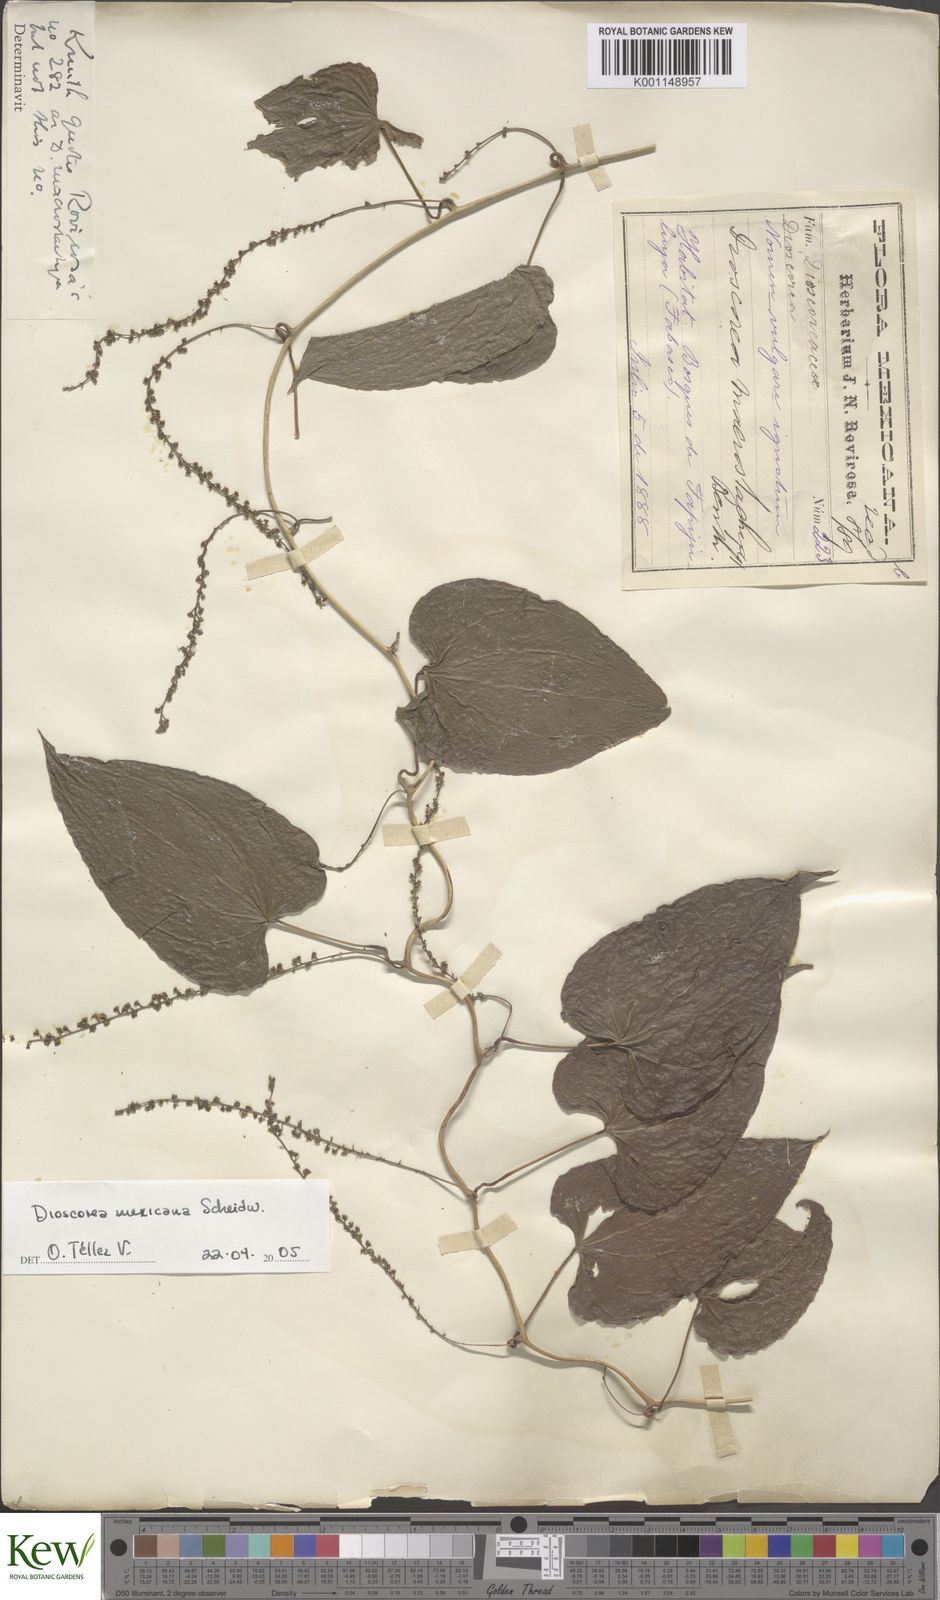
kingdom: Plantae
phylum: Tracheophyta
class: Liliopsida
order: Dioscoreales
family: Dioscoreaceae
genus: Dioscorea
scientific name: Dioscorea mexicana
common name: Mexican yam
